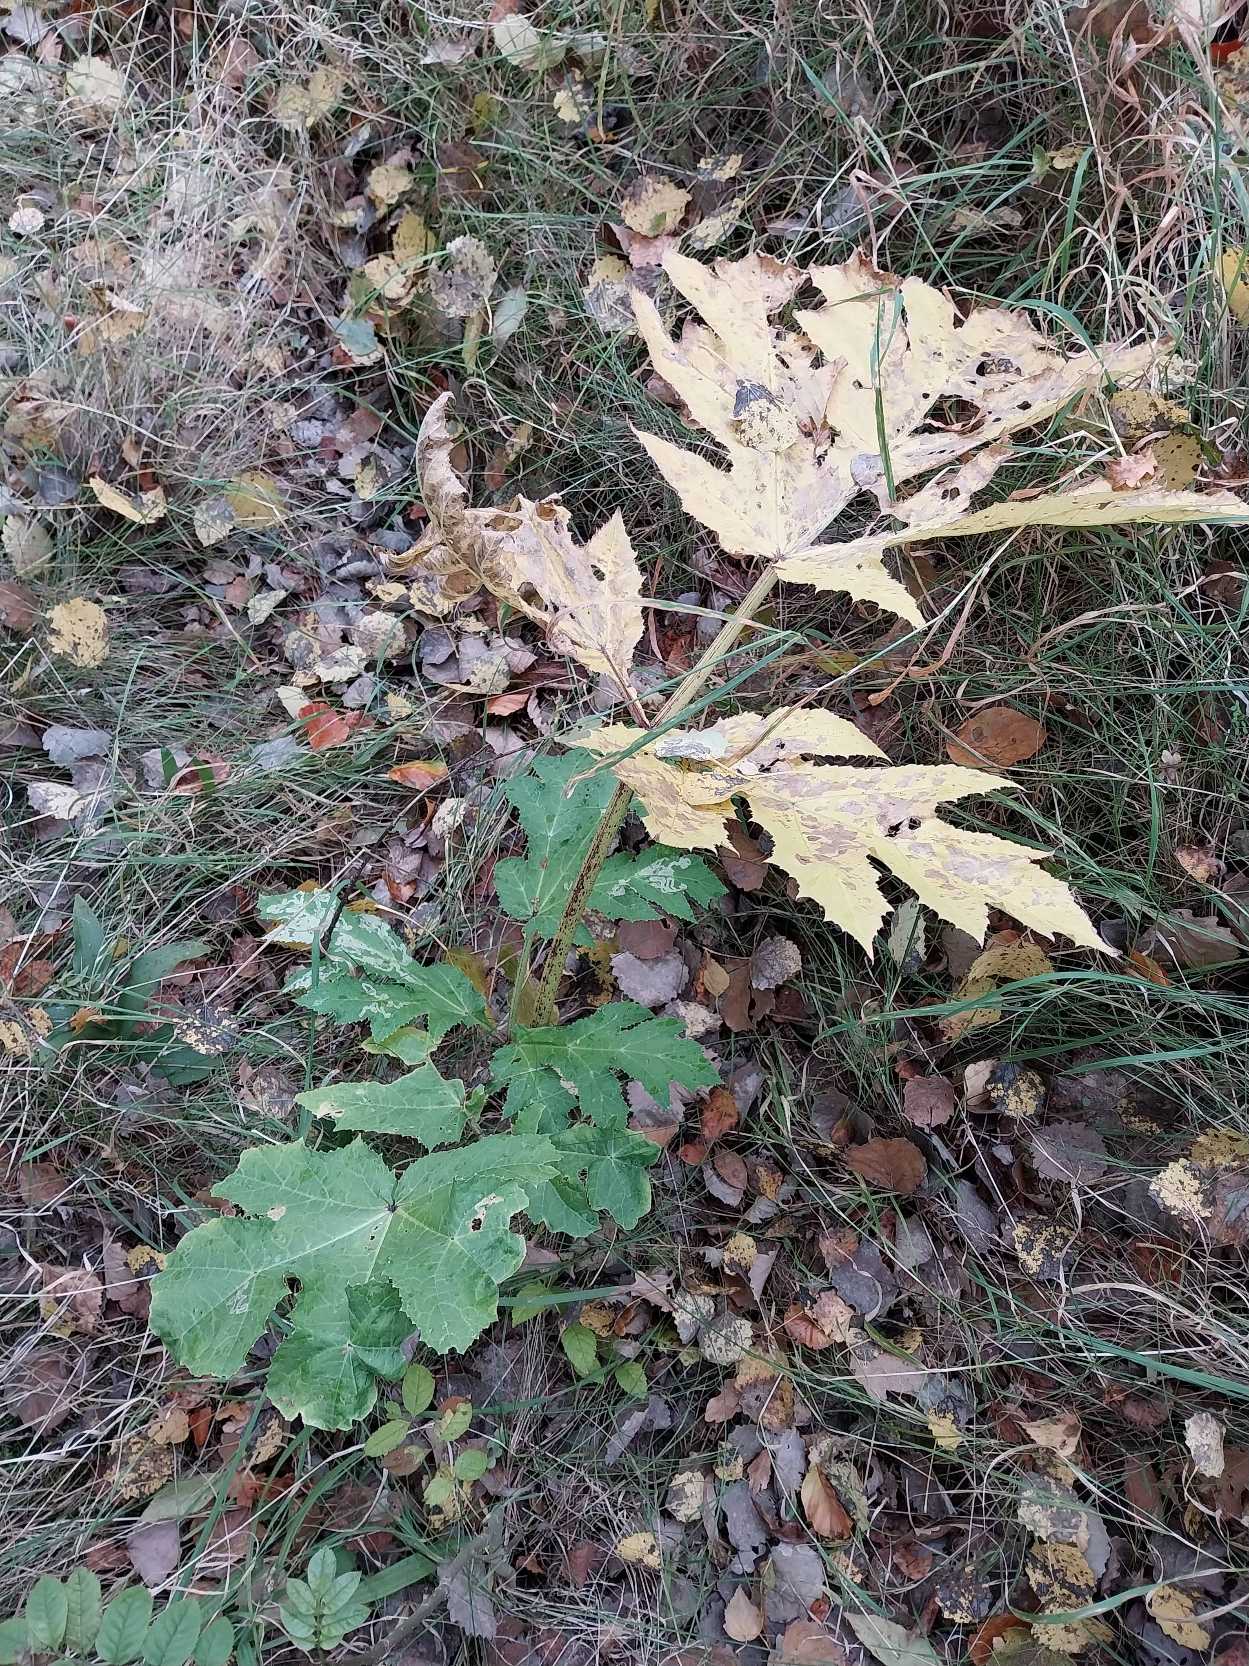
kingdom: Plantae
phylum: Tracheophyta
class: Magnoliopsida
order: Apiales
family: Apiaceae
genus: Heracleum
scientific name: Heracleum mantegazzianum
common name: Kæmpe-bjørneklo
